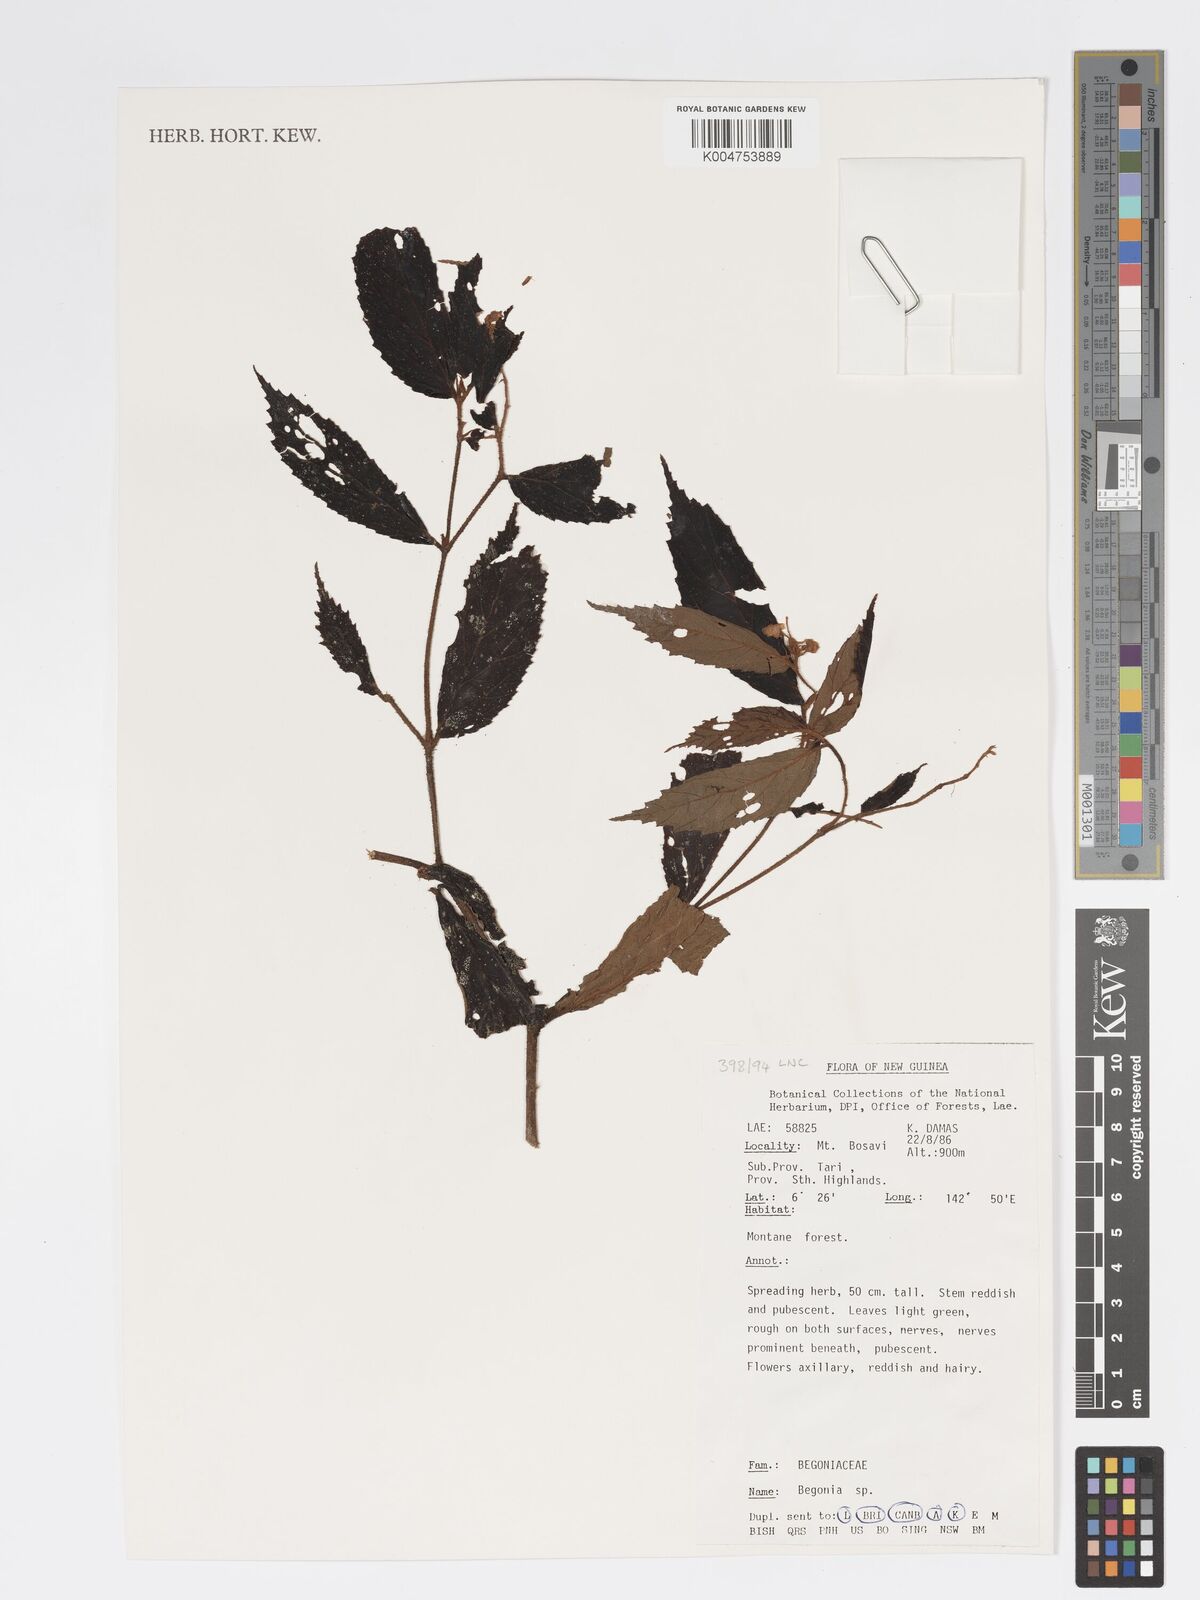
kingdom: Plantae
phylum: Tracheophyta
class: Magnoliopsida
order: Cucurbitales
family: Begoniaceae
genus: Begonia
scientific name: Begonia
